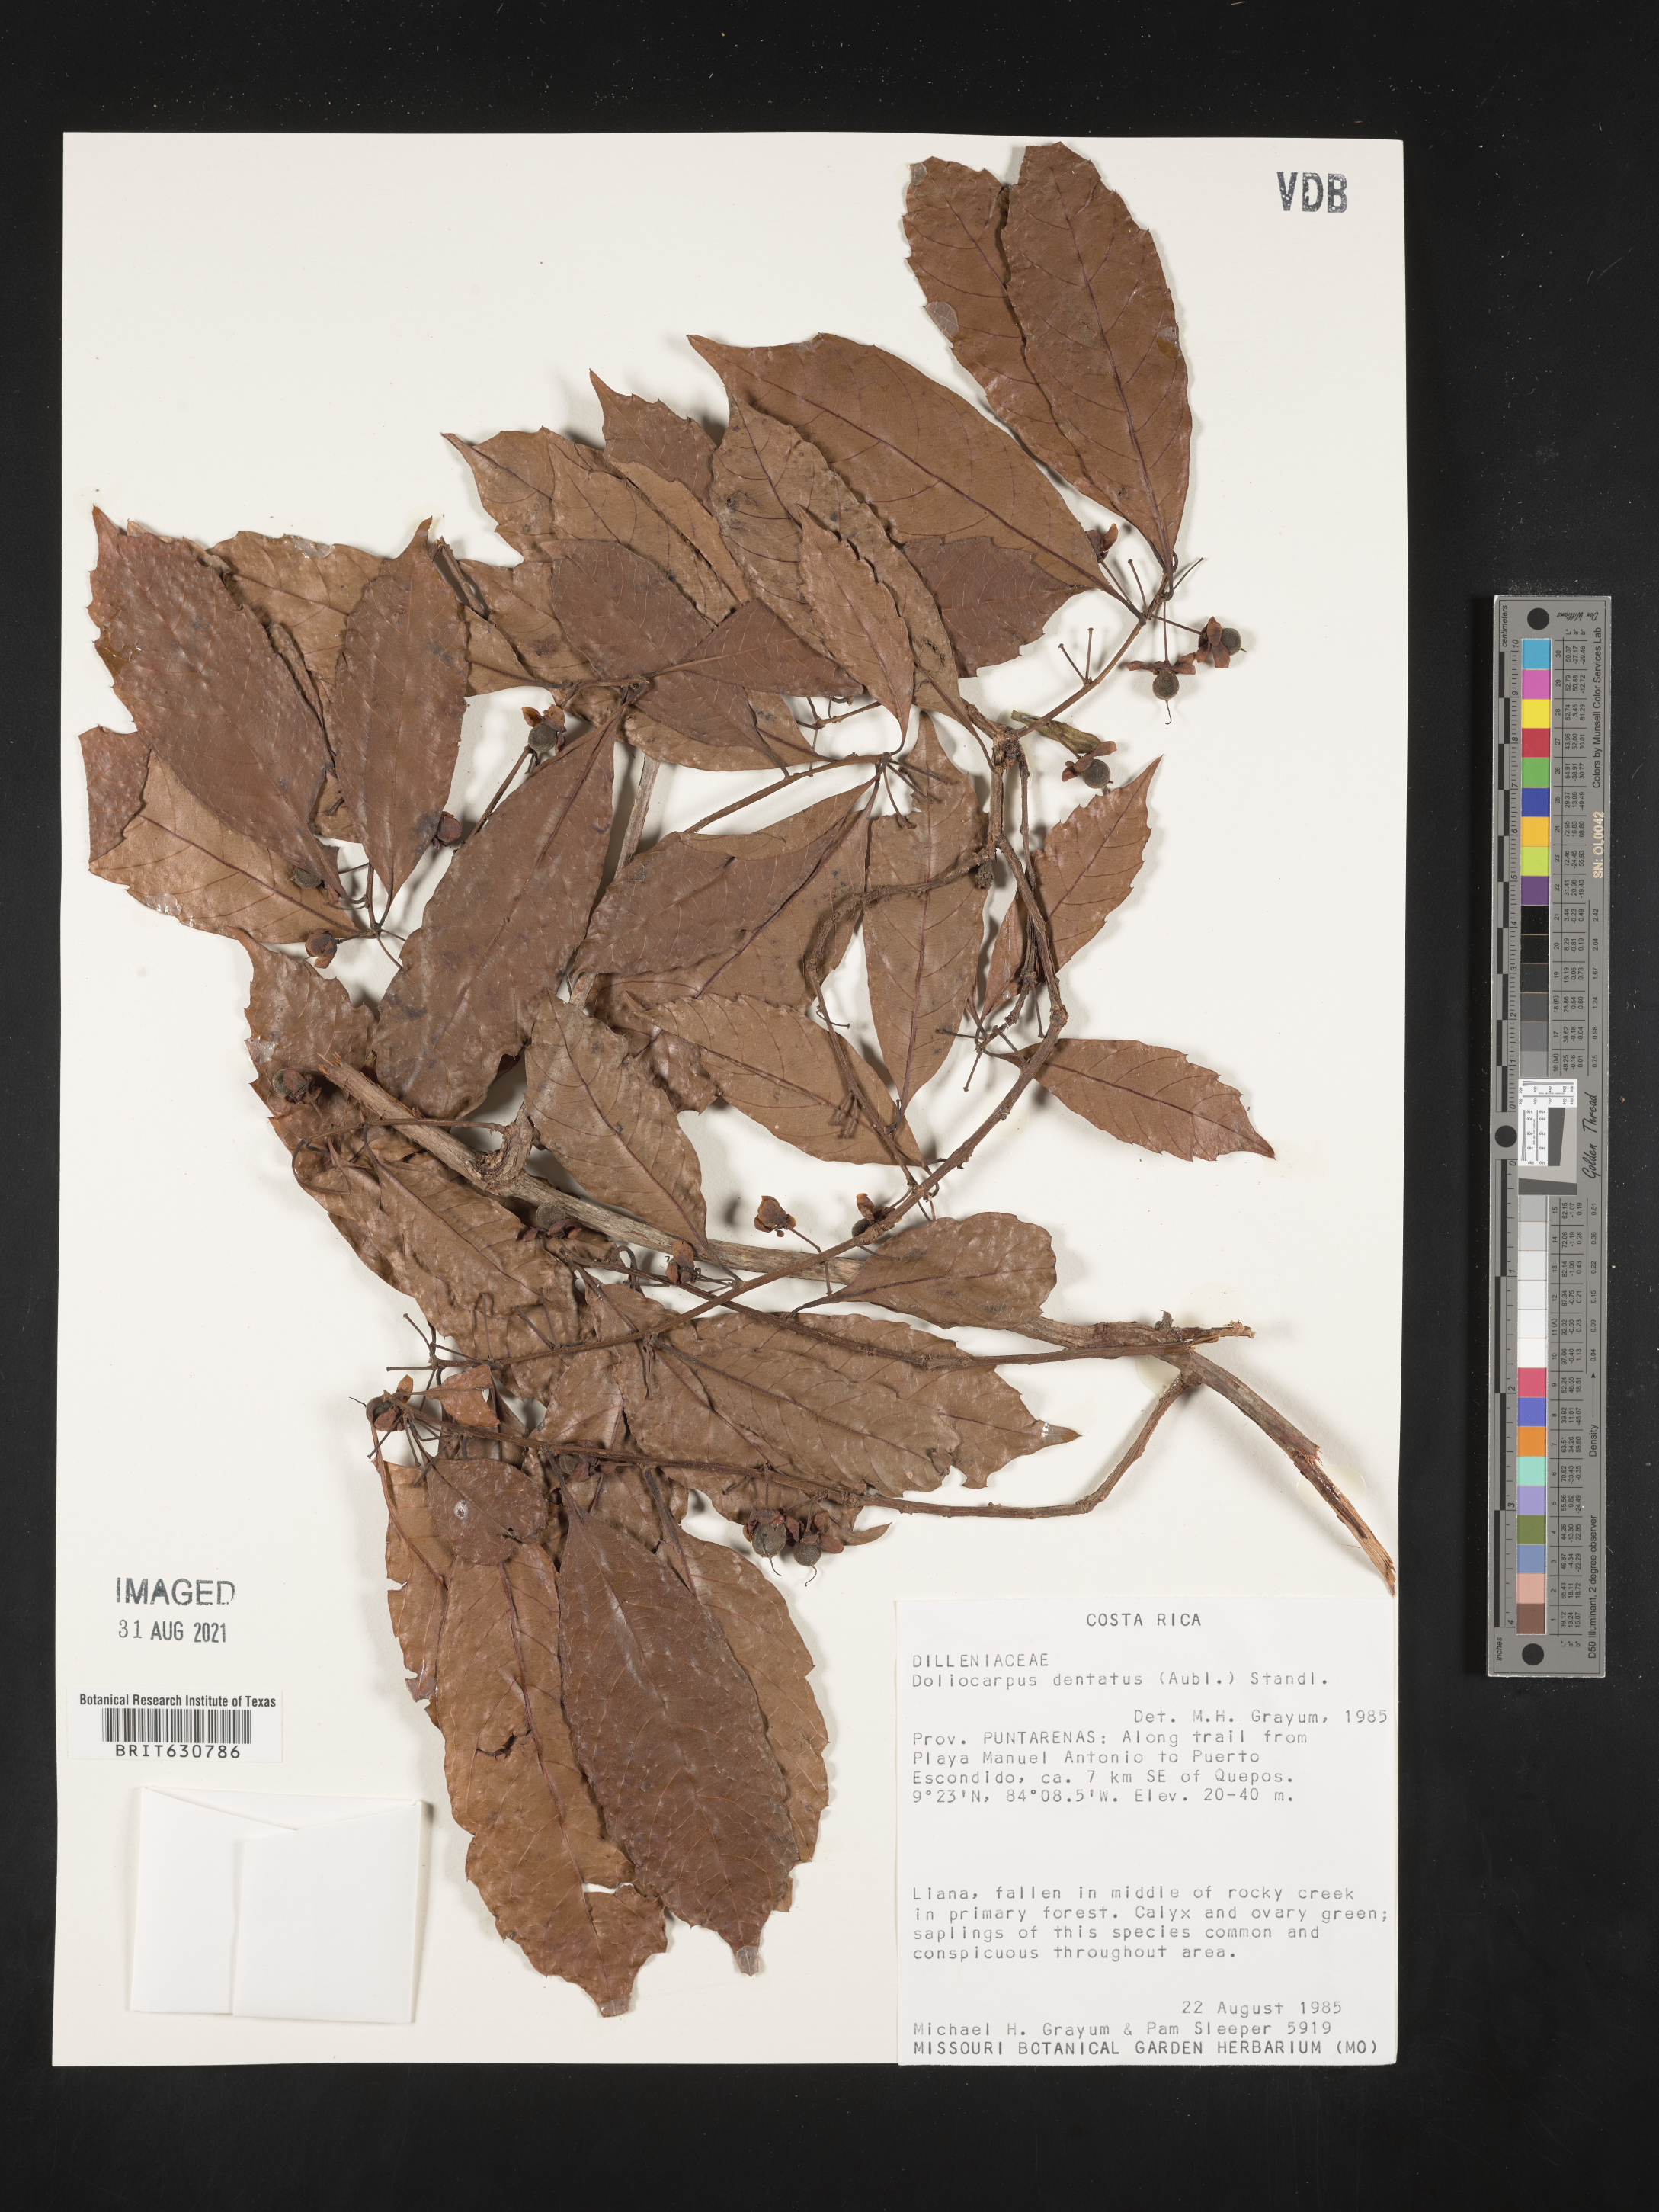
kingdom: Plantae
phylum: Tracheophyta
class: Magnoliopsida
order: Dilleniales
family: Dilleniaceae
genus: Doliocarpus
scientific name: Doliocarpus
